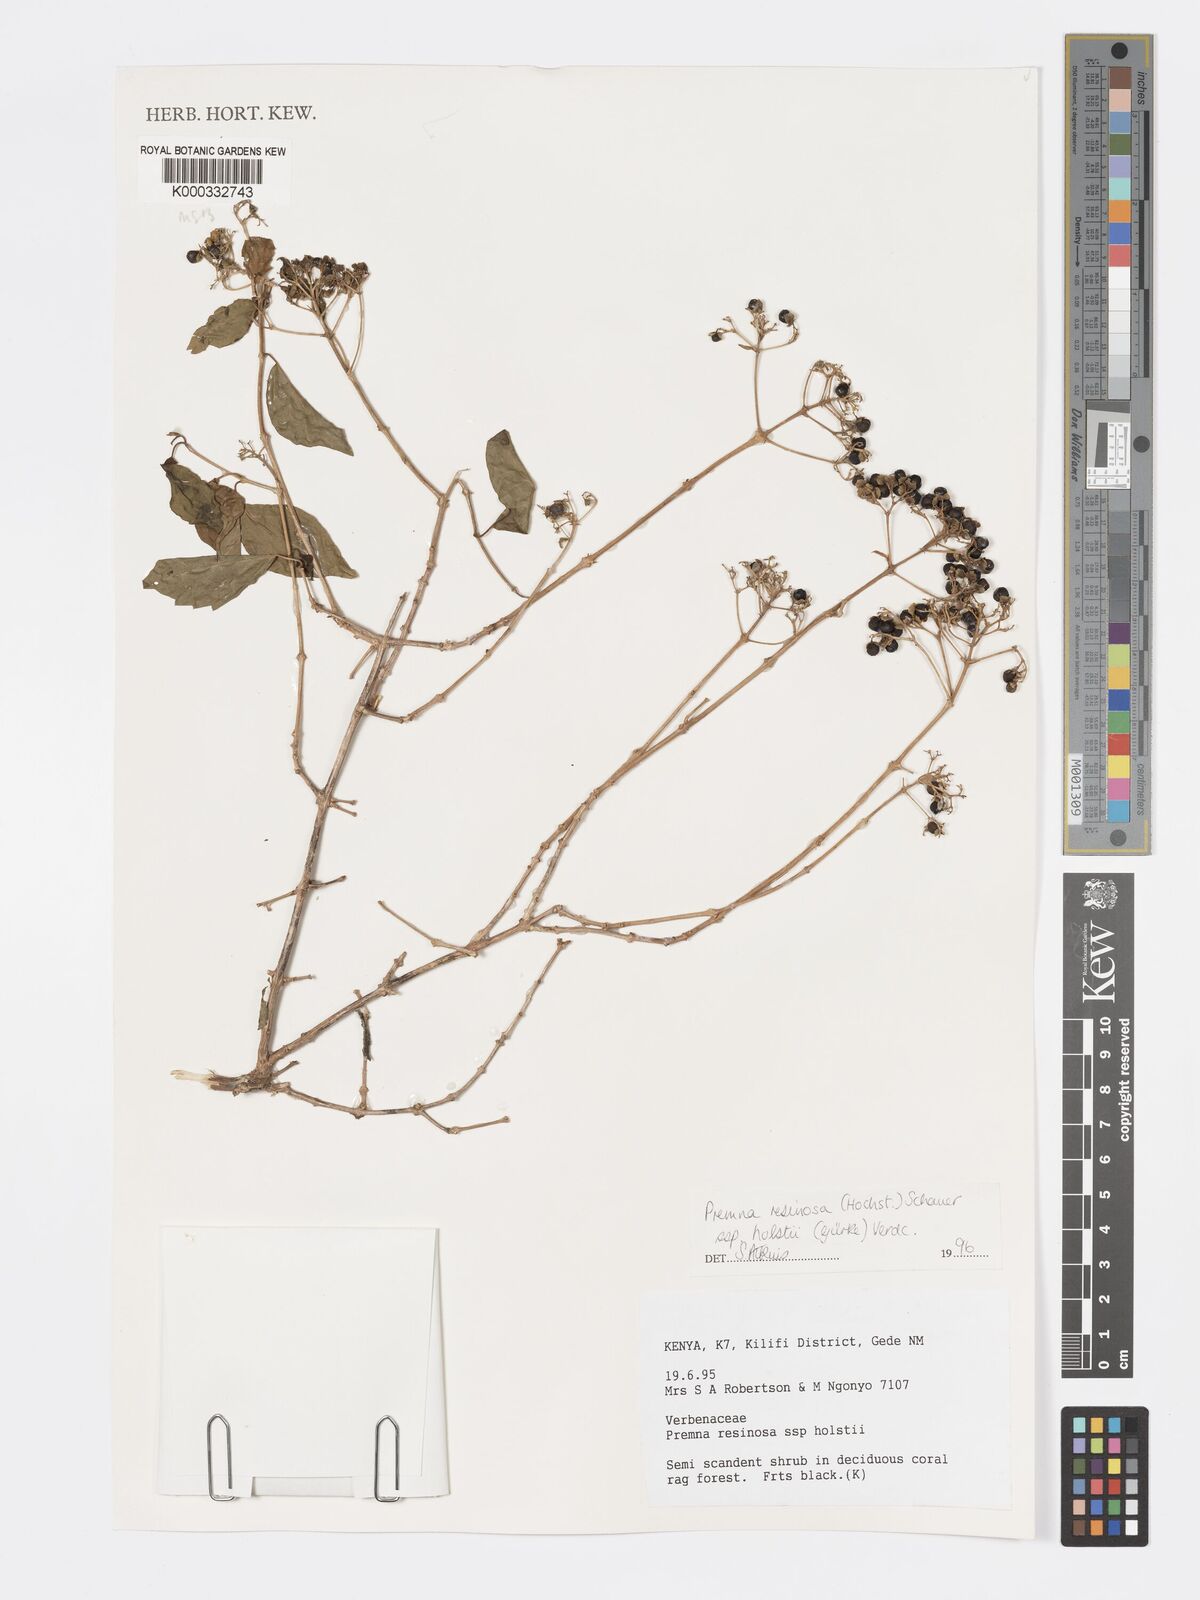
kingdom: Plantae
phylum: Tracheophyta
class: Magnoliopsida
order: Lamiales
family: Lamiaceae
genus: Premna
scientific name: Premna resinosa
